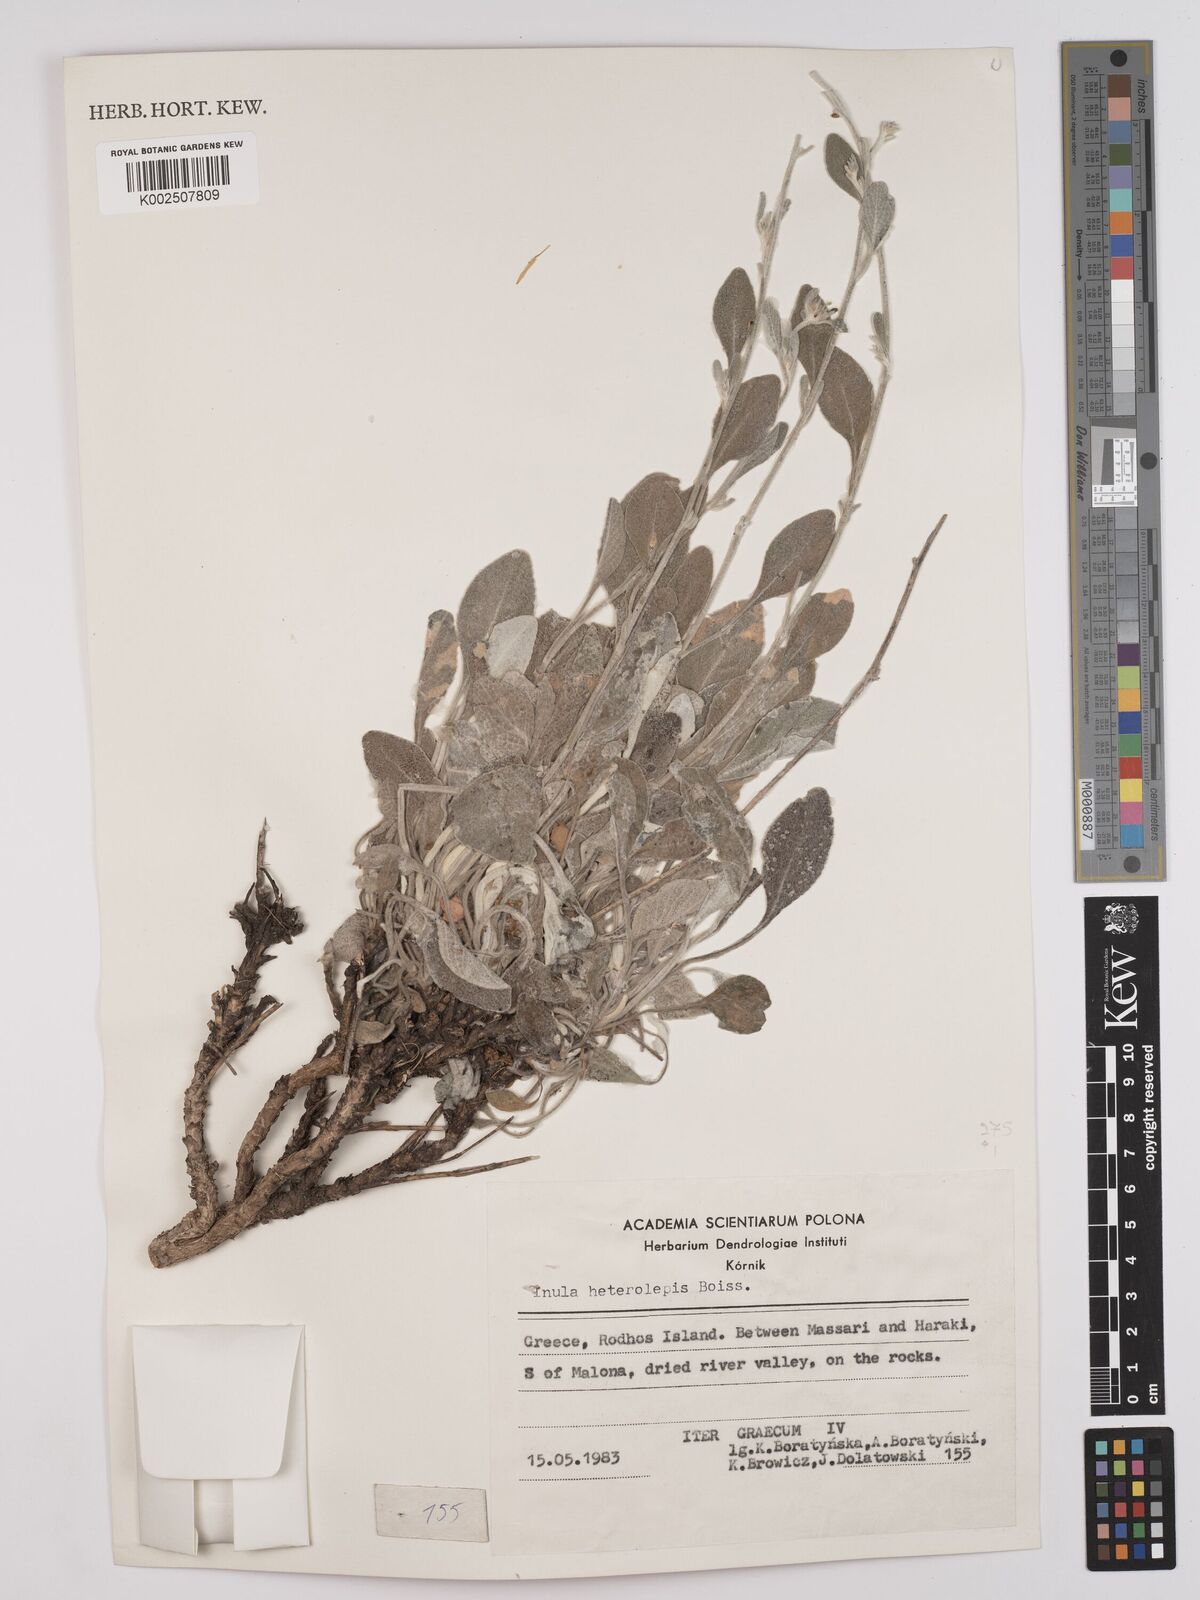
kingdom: Plantae
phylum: Tracheophyta
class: Magnoliopsida
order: Asterales
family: Asteraceae
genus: Pentanema
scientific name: Pentanema verbascifolium
